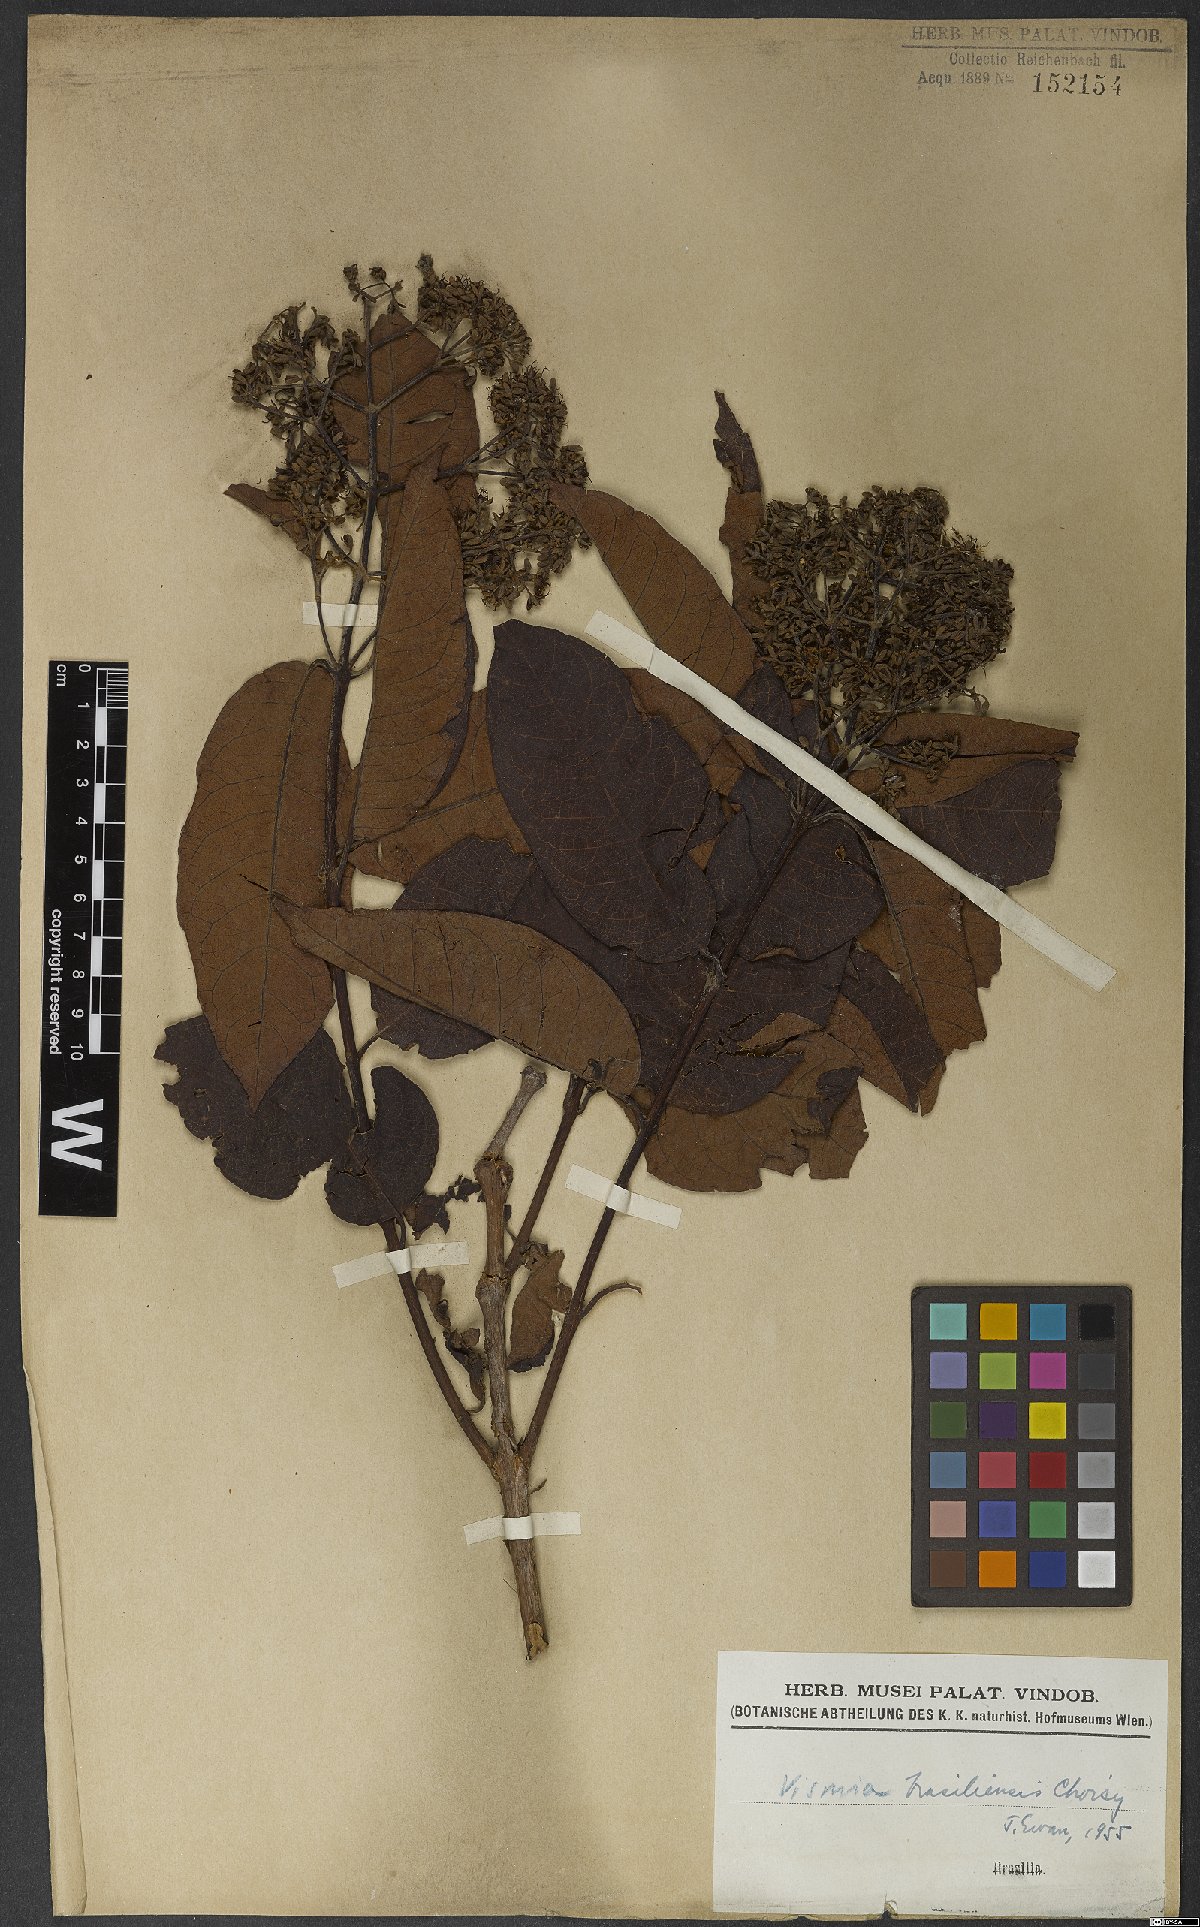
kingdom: Plantae
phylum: Tracheophyta
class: Magnoliopsida
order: Malpighiales
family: Hypericaceae
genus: Vismia
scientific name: Vismia brasiliensis
